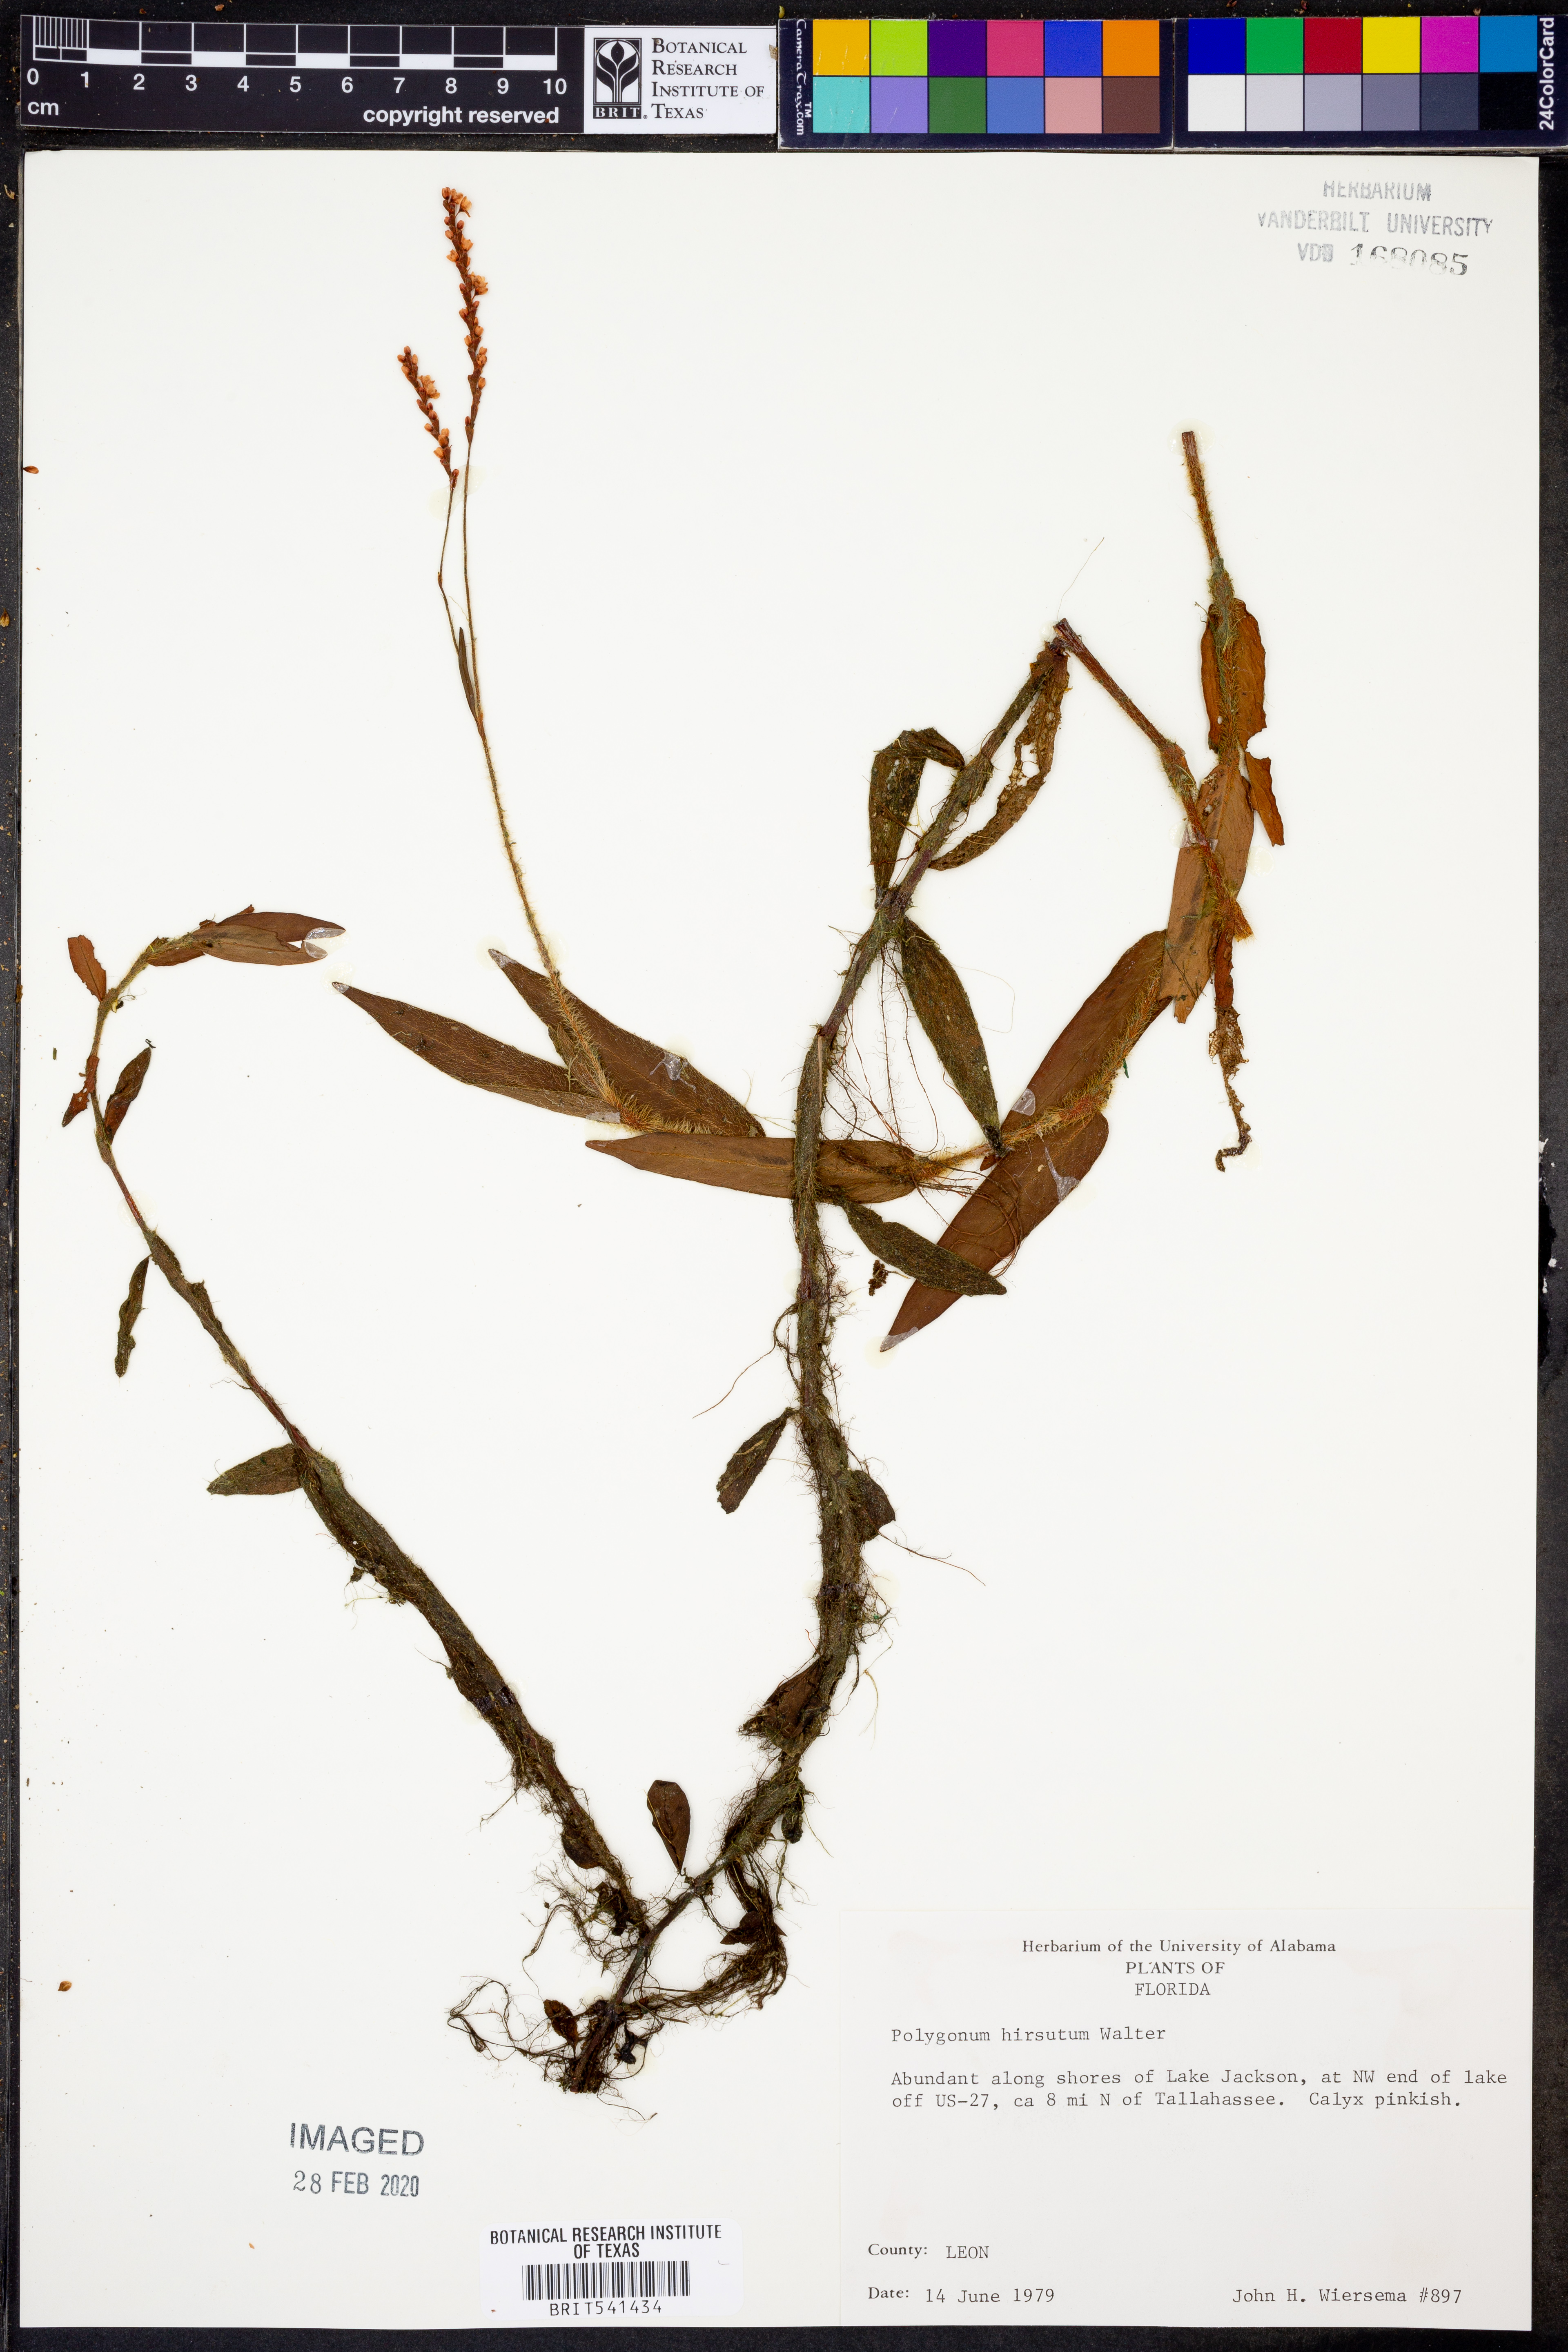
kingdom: Plantae
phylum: Tracheophyta
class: Magnoliopsida
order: Caryophyllales
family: Polygonaceae
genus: Persicaria
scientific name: Persicaria hirsuta
